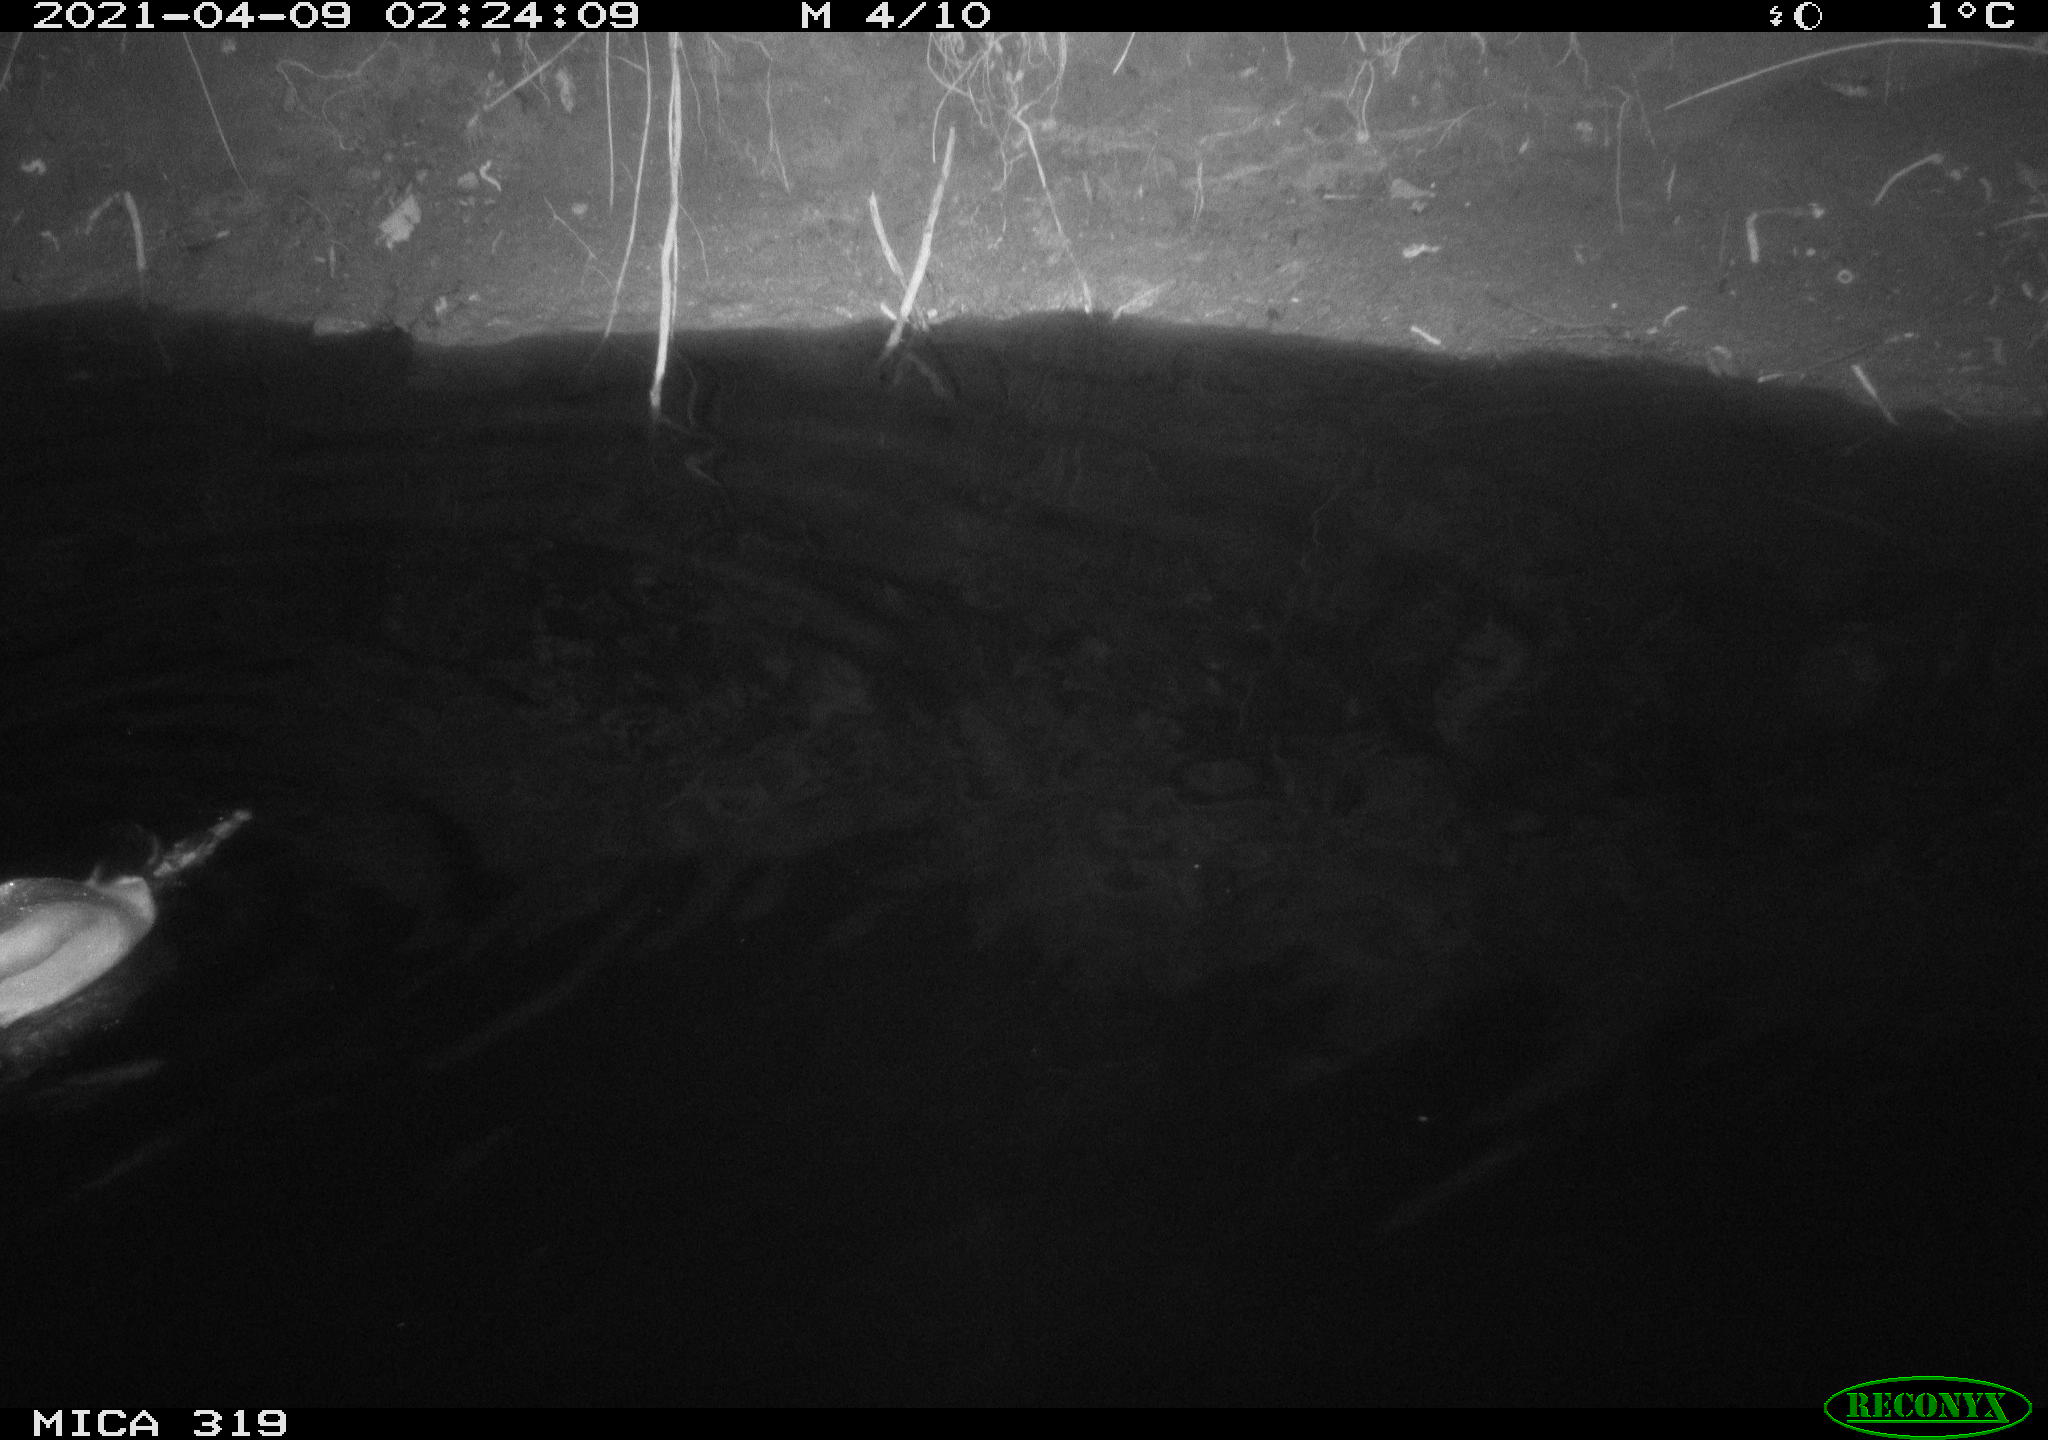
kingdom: Animalia
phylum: Chordata
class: Aves
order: Anseriformes
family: Anatidae
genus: Anas
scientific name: Anas platyrhynchos
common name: Mallard
